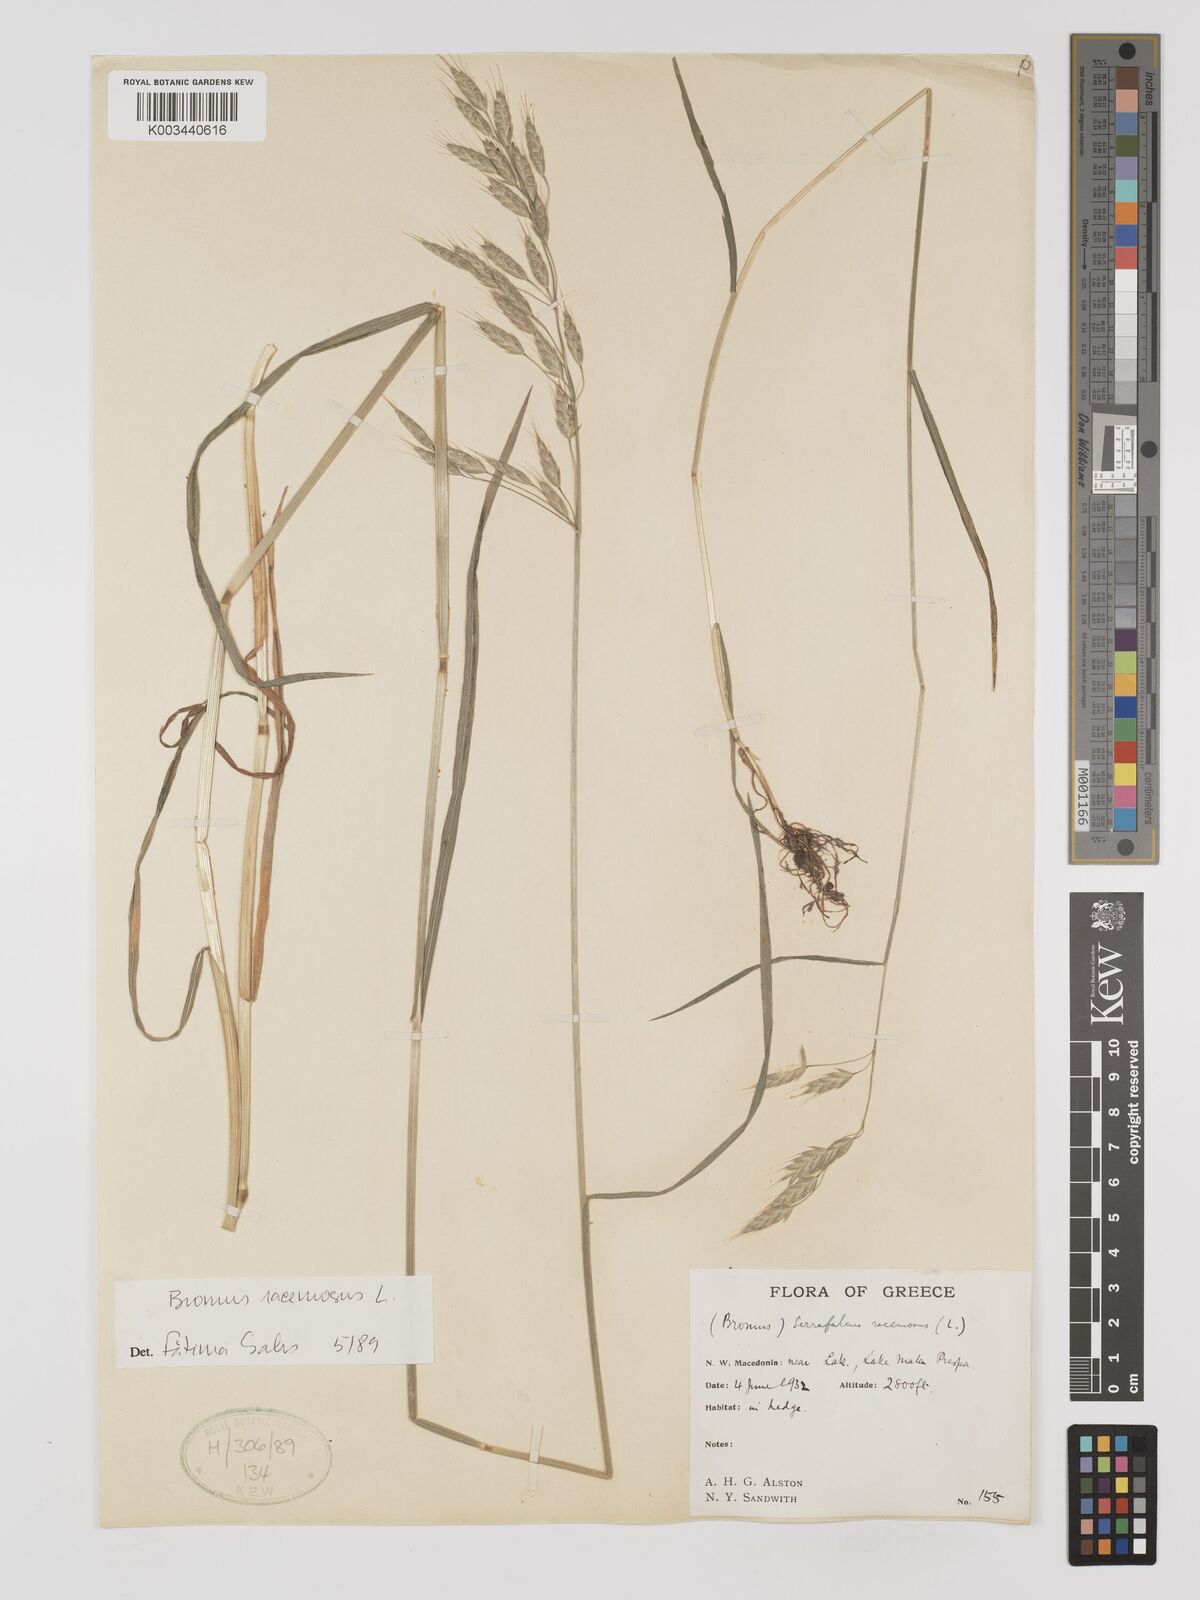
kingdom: Plantae
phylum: Tracheophyta
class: Liliopsida
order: Poales
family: Poaceae
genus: Bromus
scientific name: Bromus racemosus
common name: Bald brome
